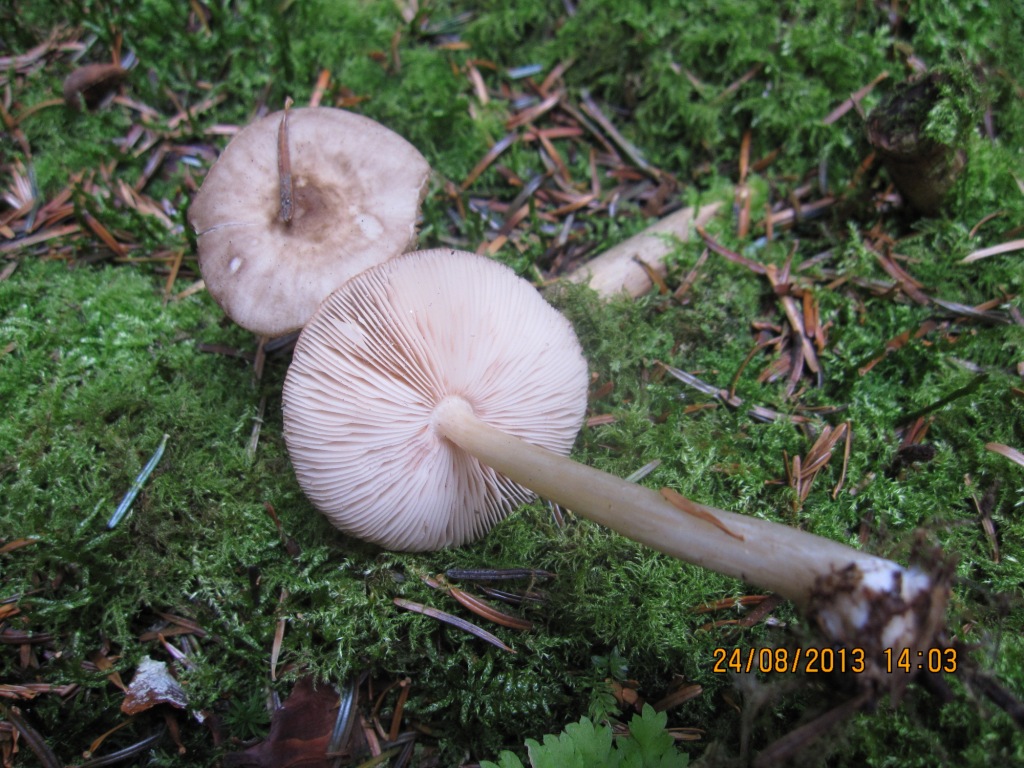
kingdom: Fungi
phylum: Basidiomycota
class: Agaricomycetes
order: Agaricales
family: Pluteaceae
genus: Pluteus
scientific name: Pluteus cervinus
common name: sodfarvet skærmhat
